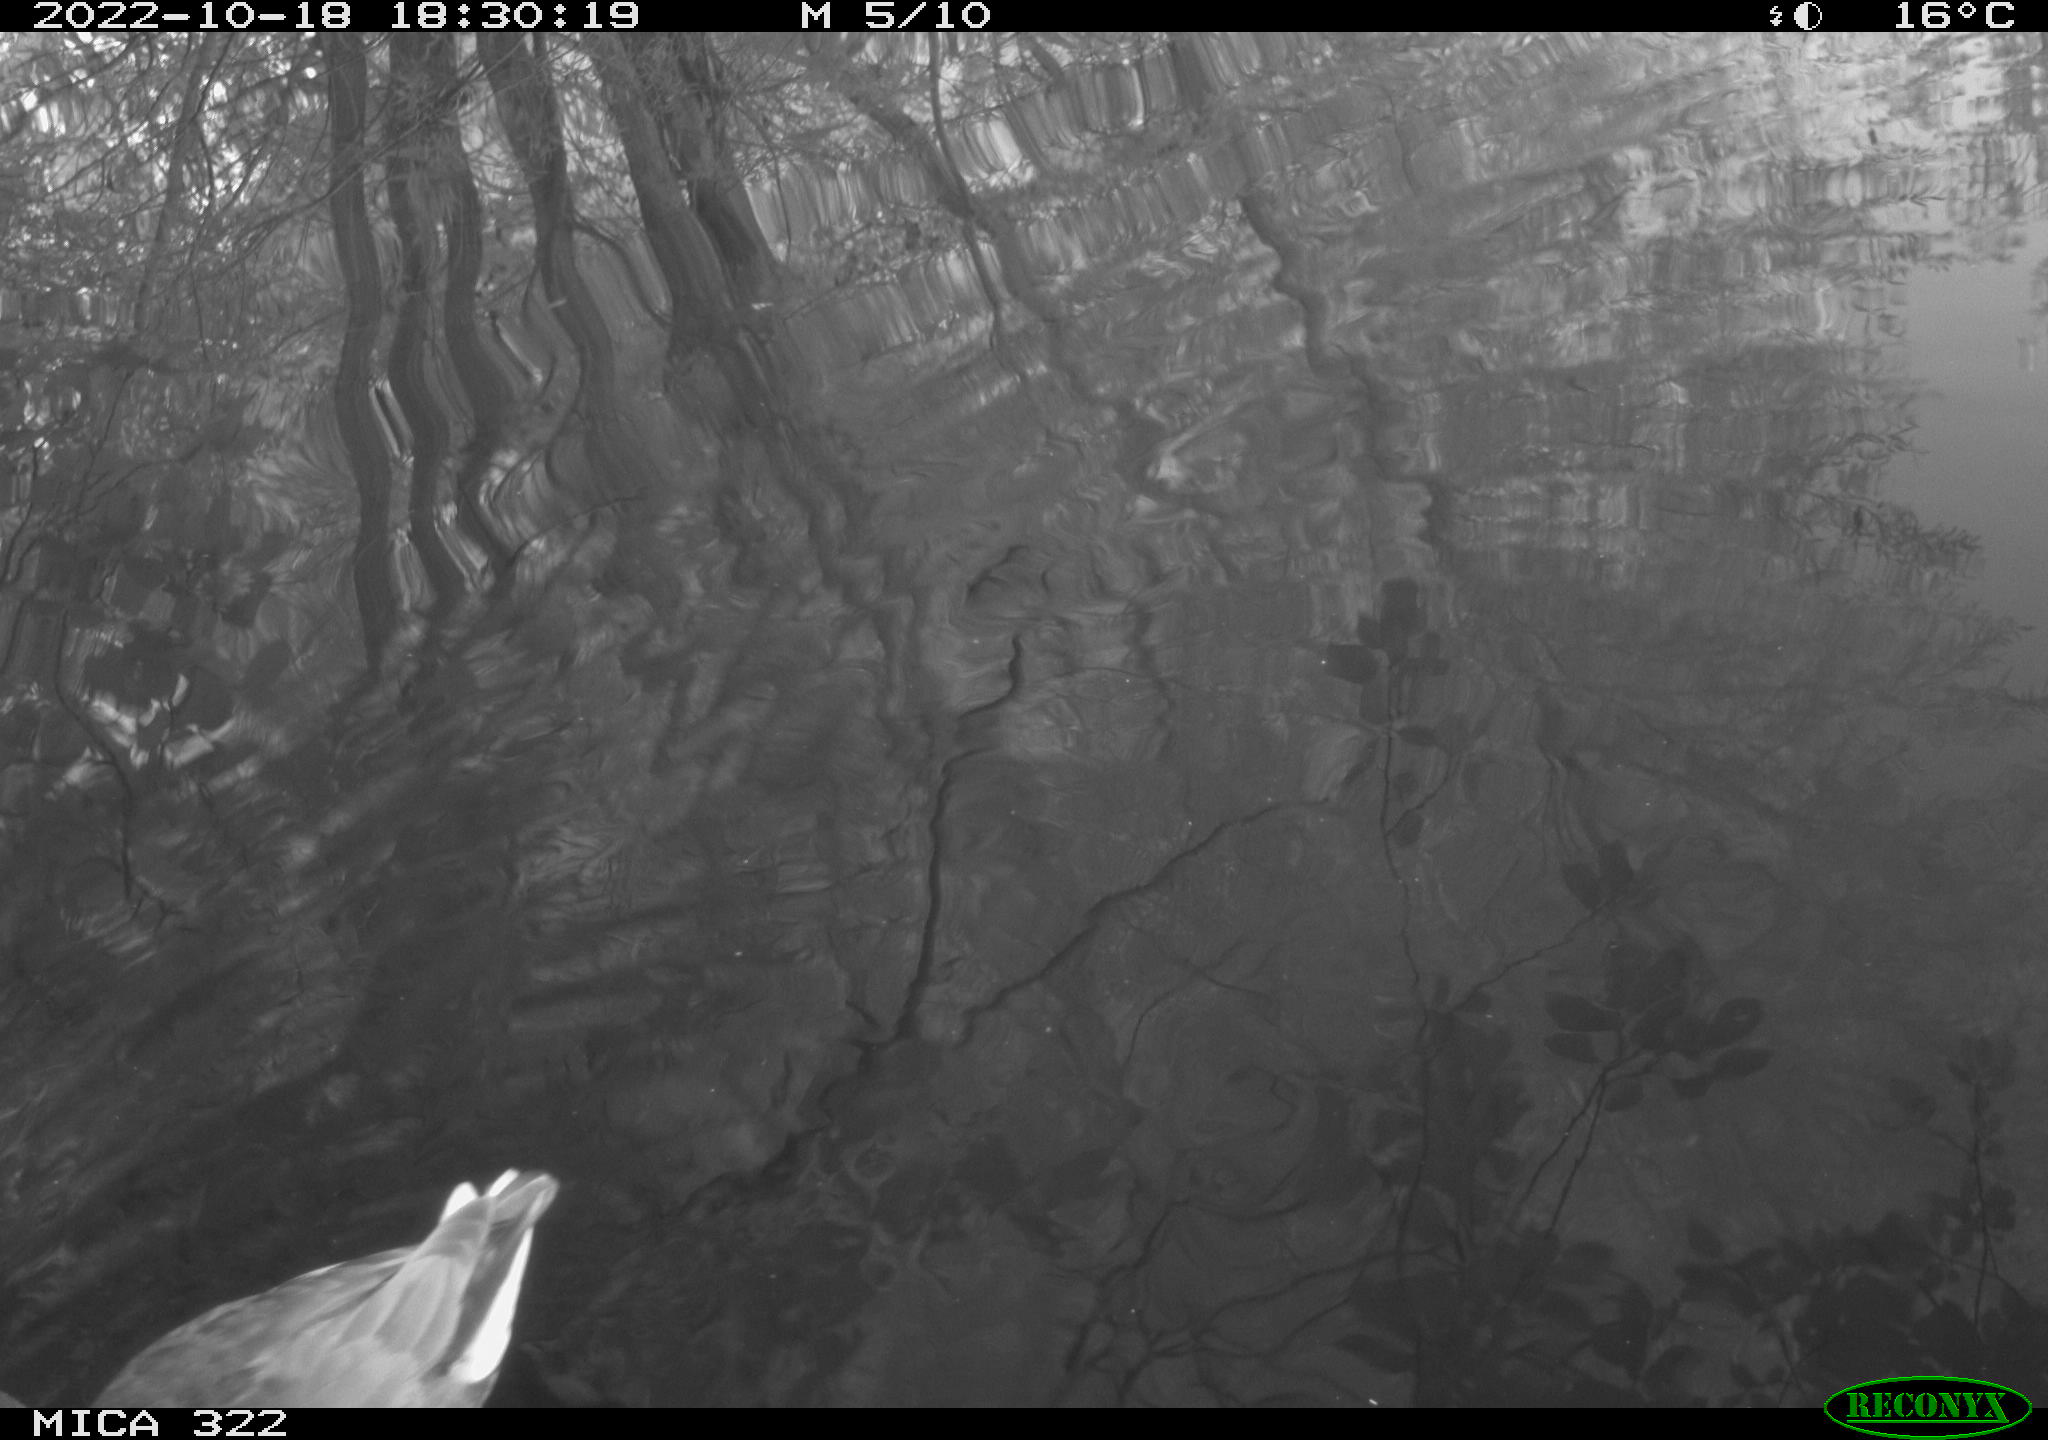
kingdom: Animalia
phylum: Chordata
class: Aves
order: Gruiformes
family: Rallidae
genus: Fulica
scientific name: Fulica atra
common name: Eurasian coot
